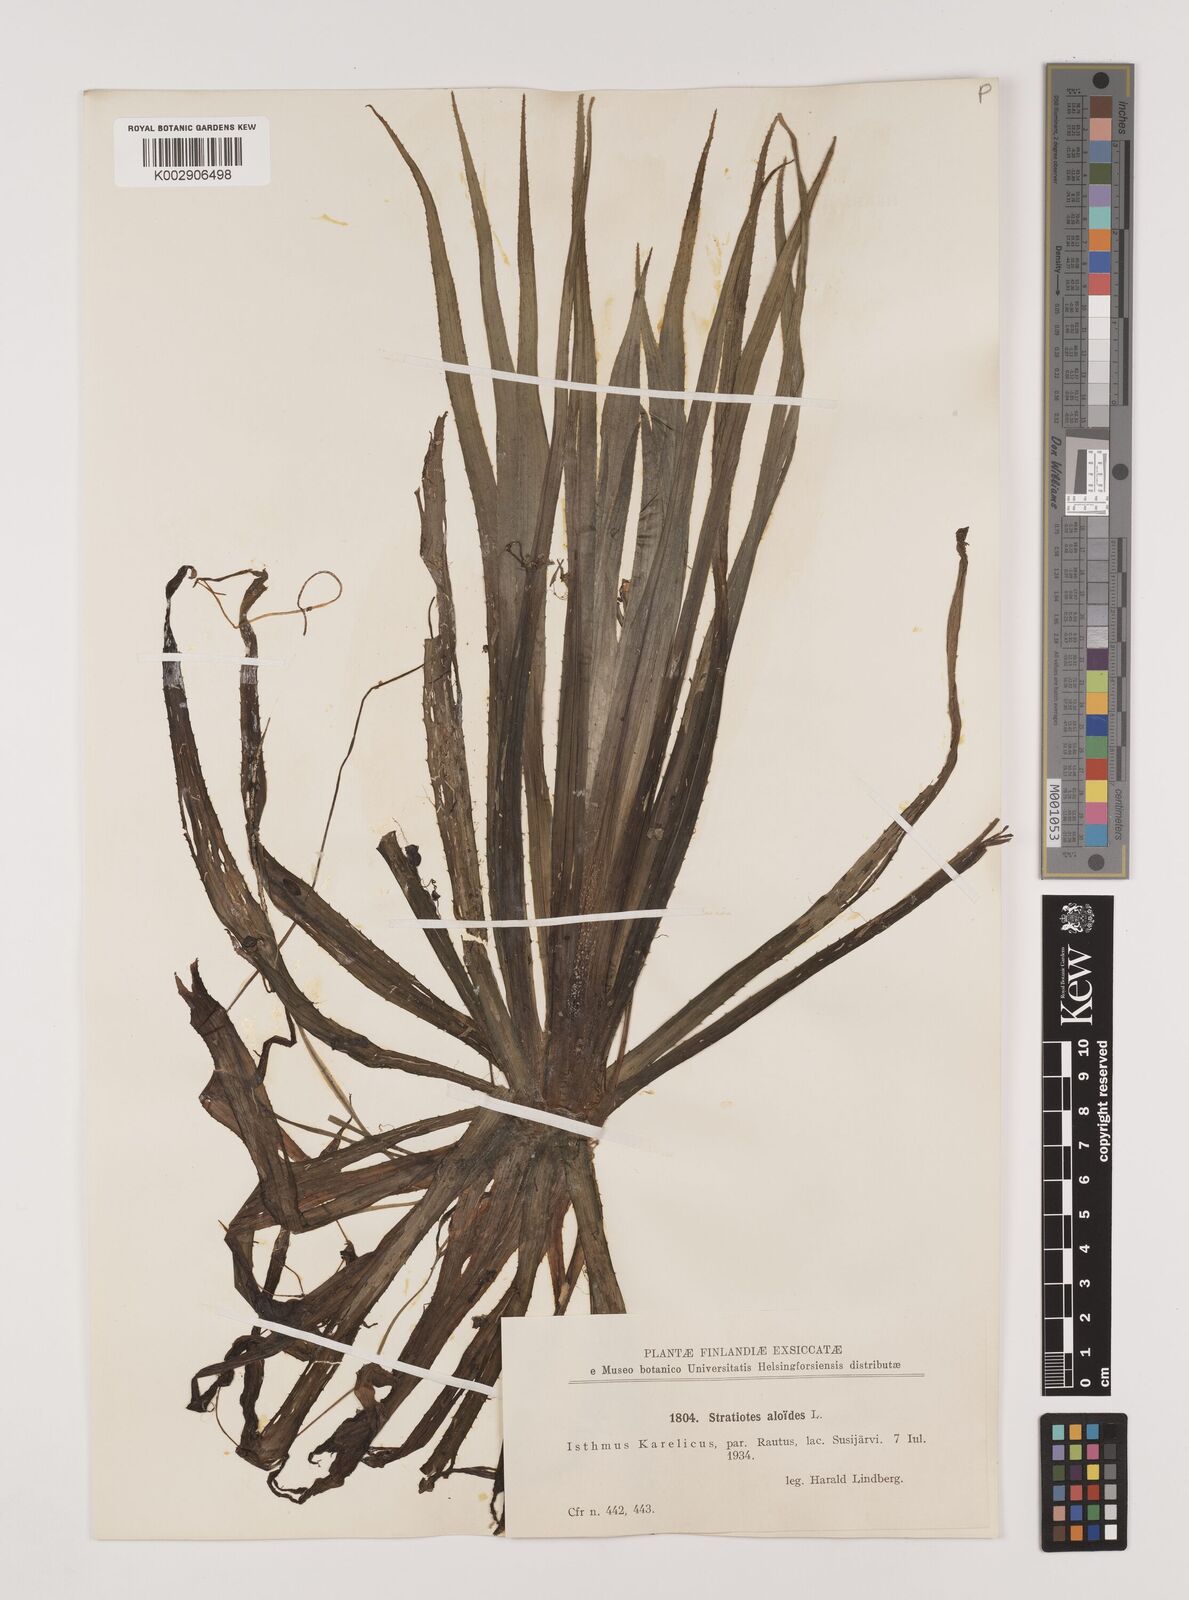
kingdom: Plantae
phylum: Tracheophyta
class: Liliopsida
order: Alismatales
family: Hydrocharitaceae
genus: Stratiotes
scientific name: Stratiotes aloides
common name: Water-soldier
